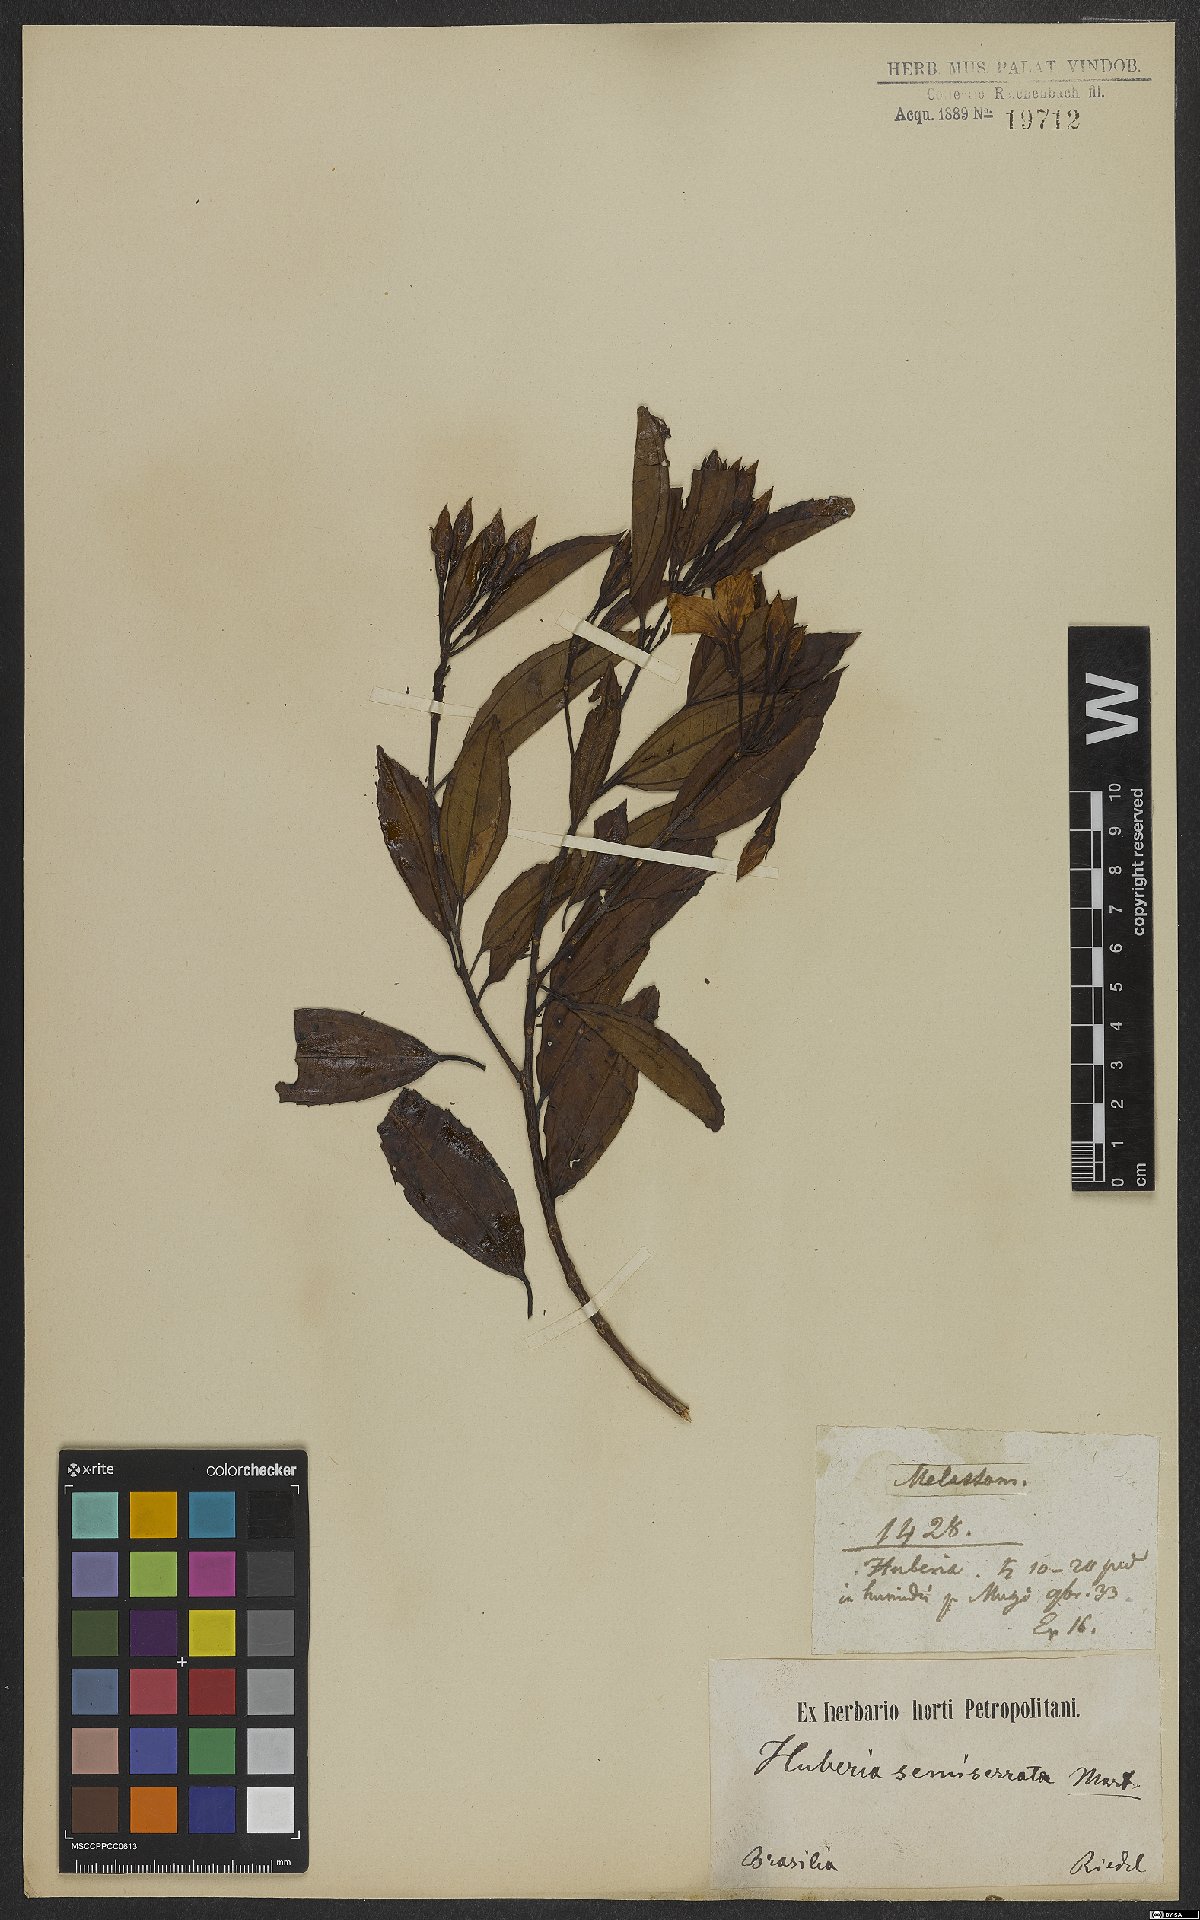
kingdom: Plantae
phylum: Tracheophyta
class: Magnoliopsida
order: Myrtales
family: Melastomataceae
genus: Huberia
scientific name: Huberia semiserrata
